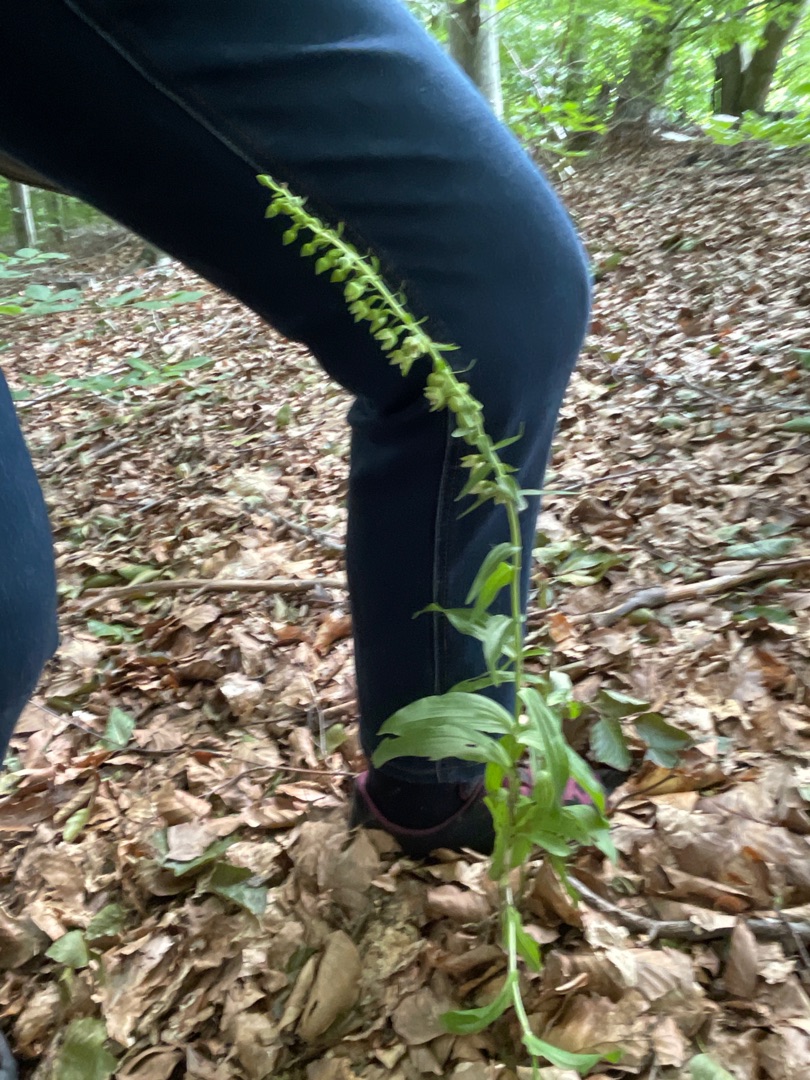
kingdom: Plantae
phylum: Tracheophyta
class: Liliopsida
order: Asparagales
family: Orchidaceae
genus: Epipactis
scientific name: Epipactis helleborine
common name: Skov-hullæbe
